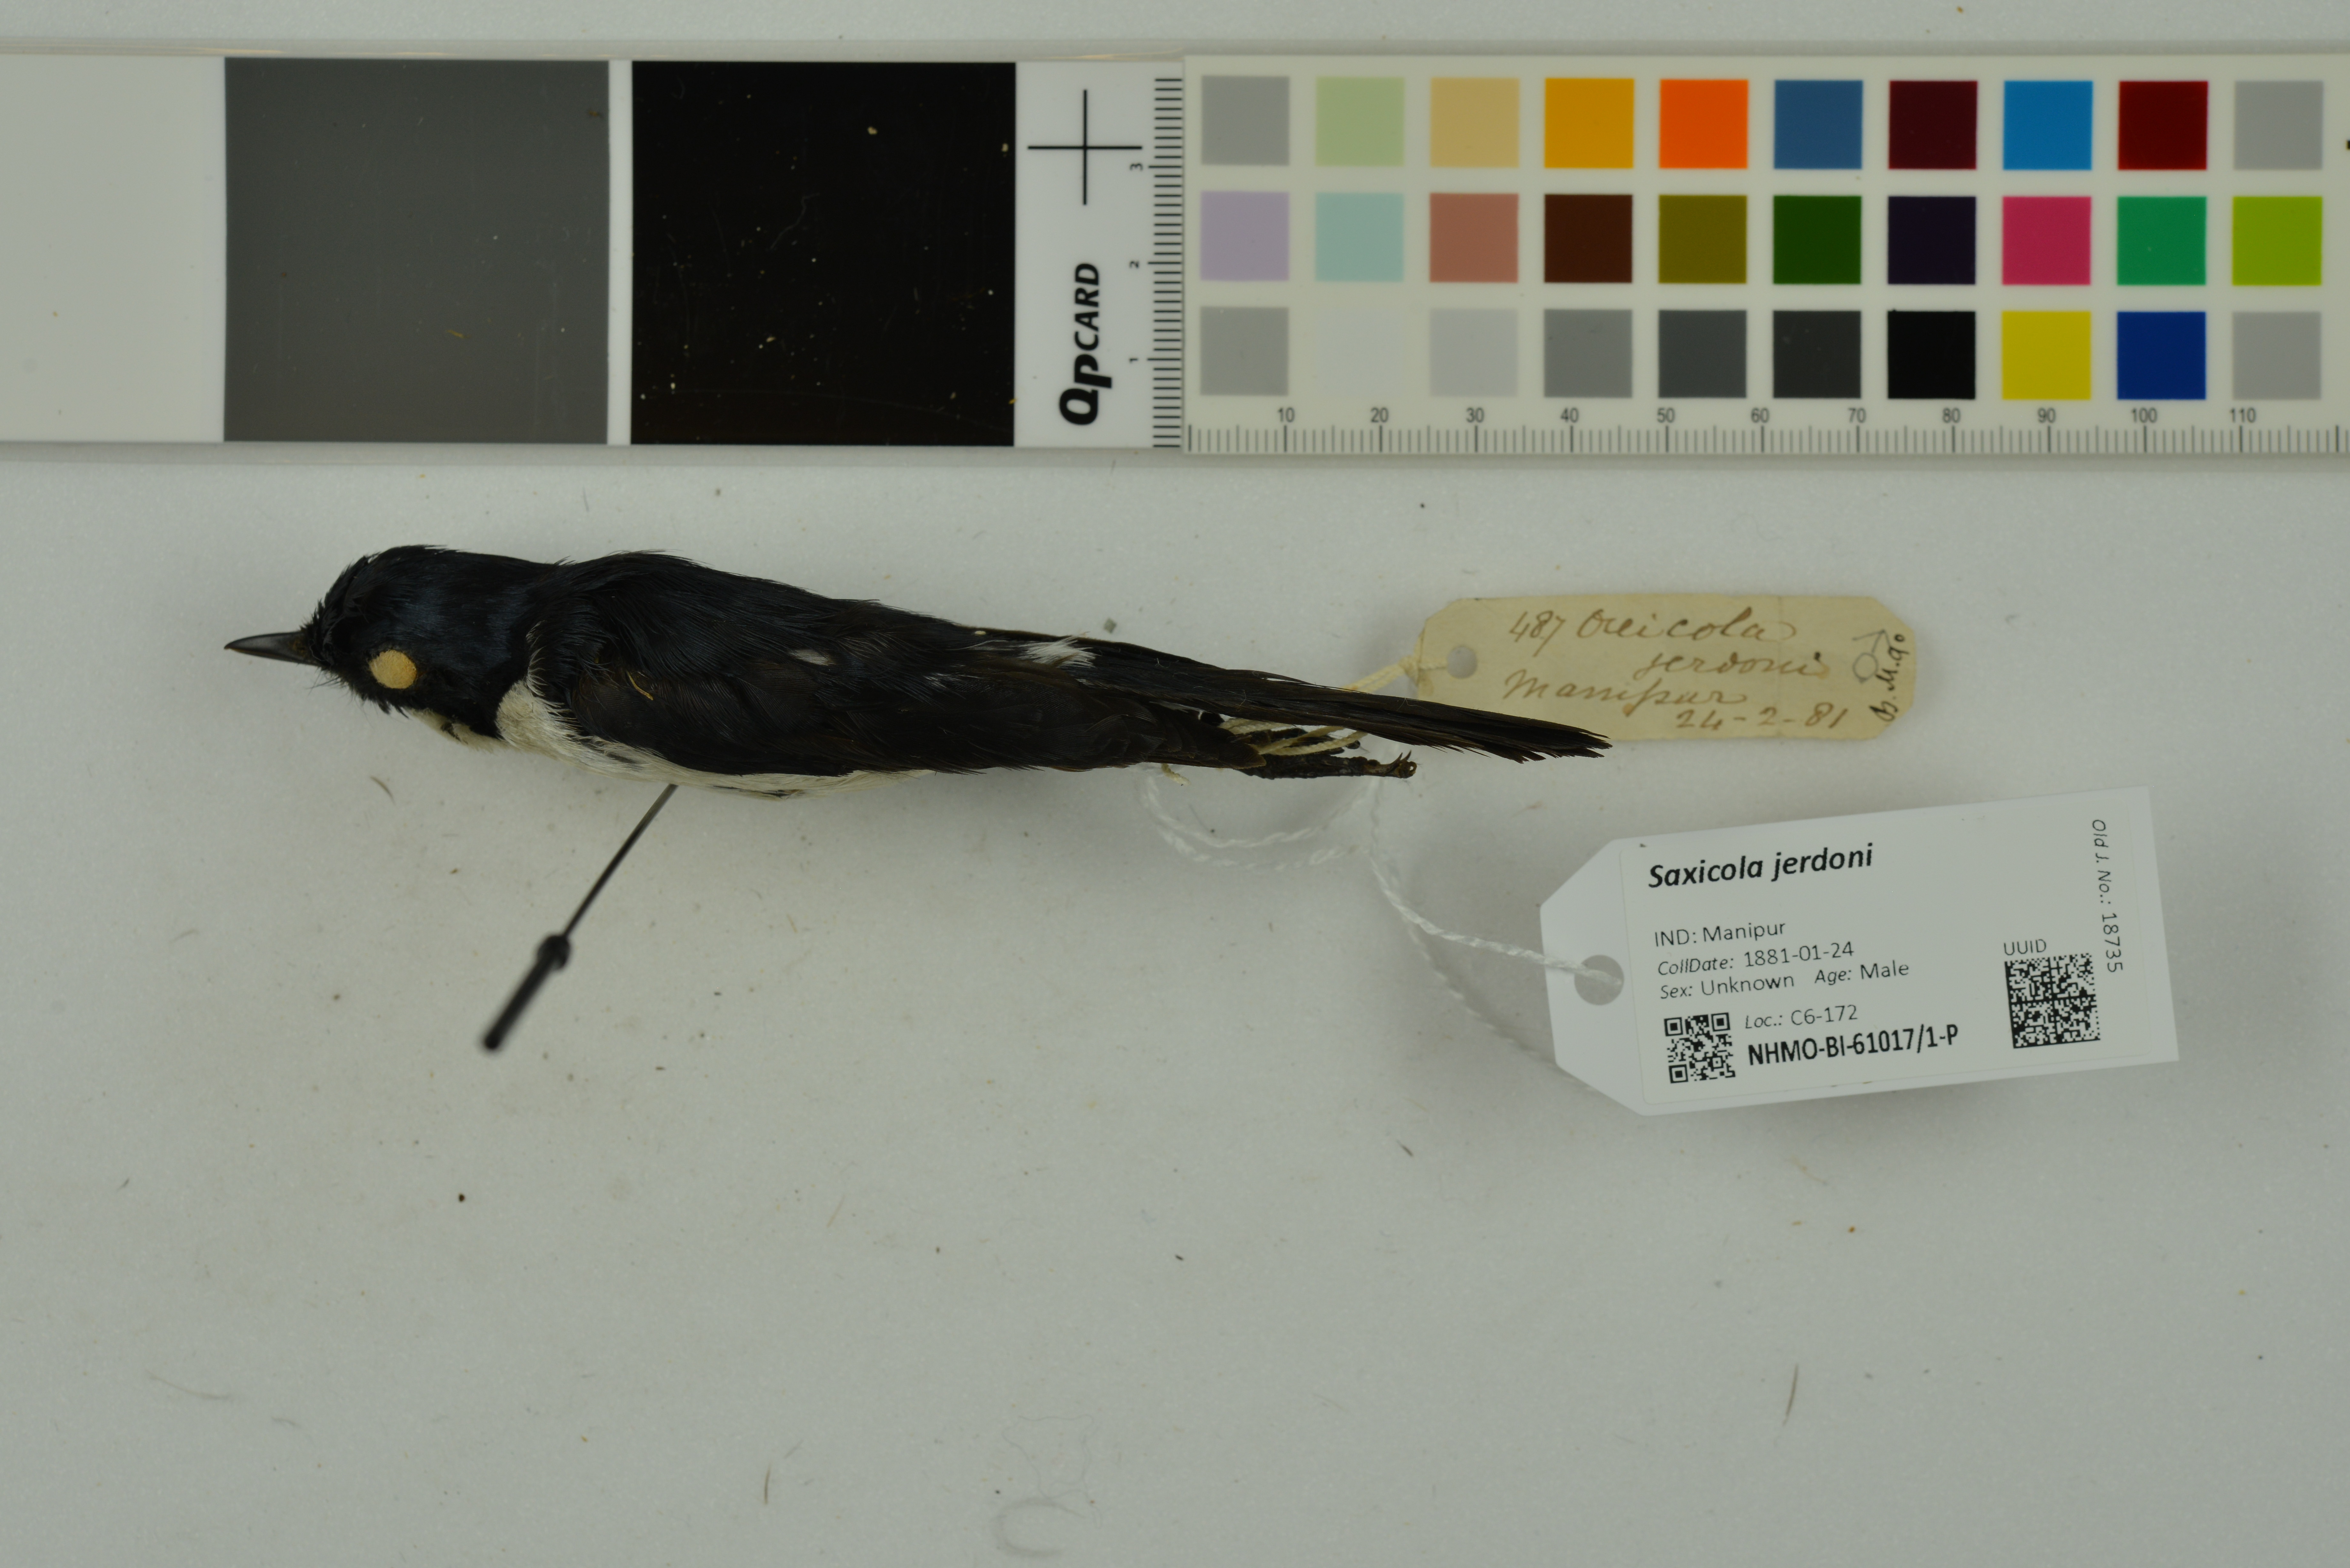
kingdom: Animalia
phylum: Chordata
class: Aves
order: Passeriformes
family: Muscicapidae
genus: Saxicola
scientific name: Saxicola jerdoni
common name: Jerdon's bush chat
